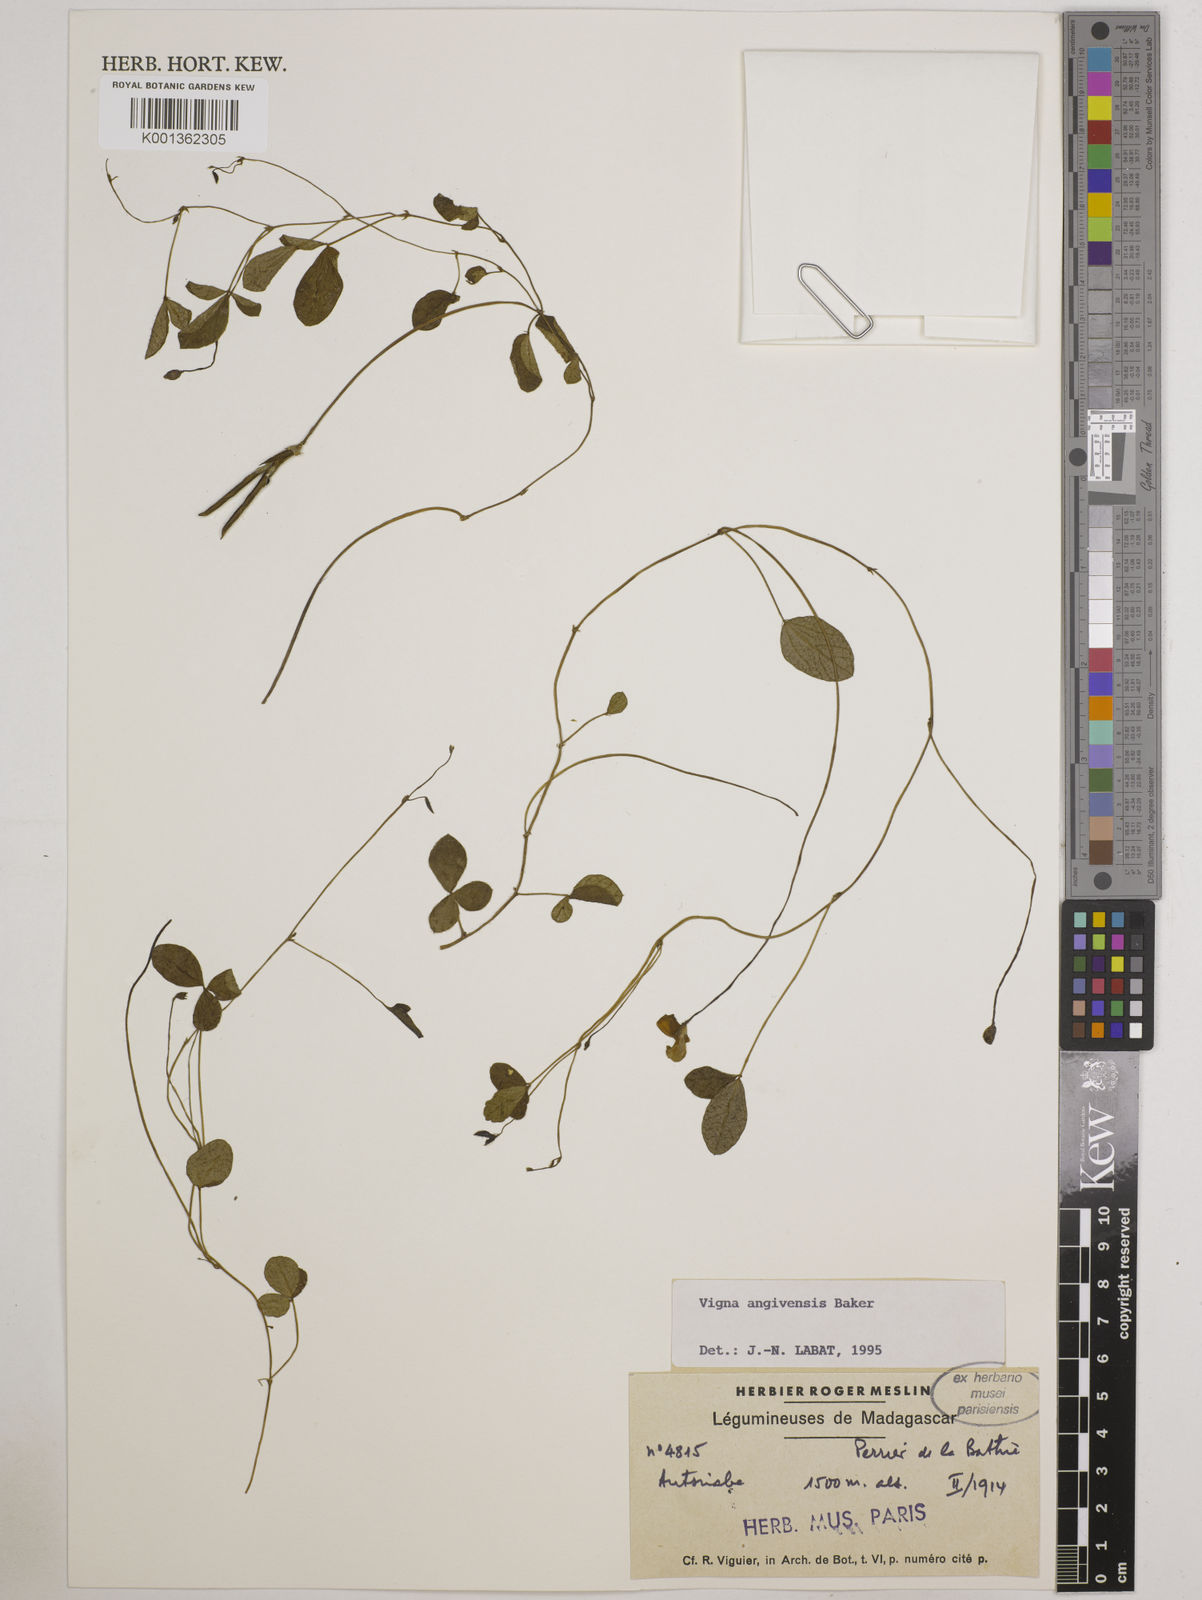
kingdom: Plantae
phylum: Tracheophyta
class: Magnoliopsida
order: Fabales
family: Fabaceae
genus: Vigna
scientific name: Vigna angivensis
